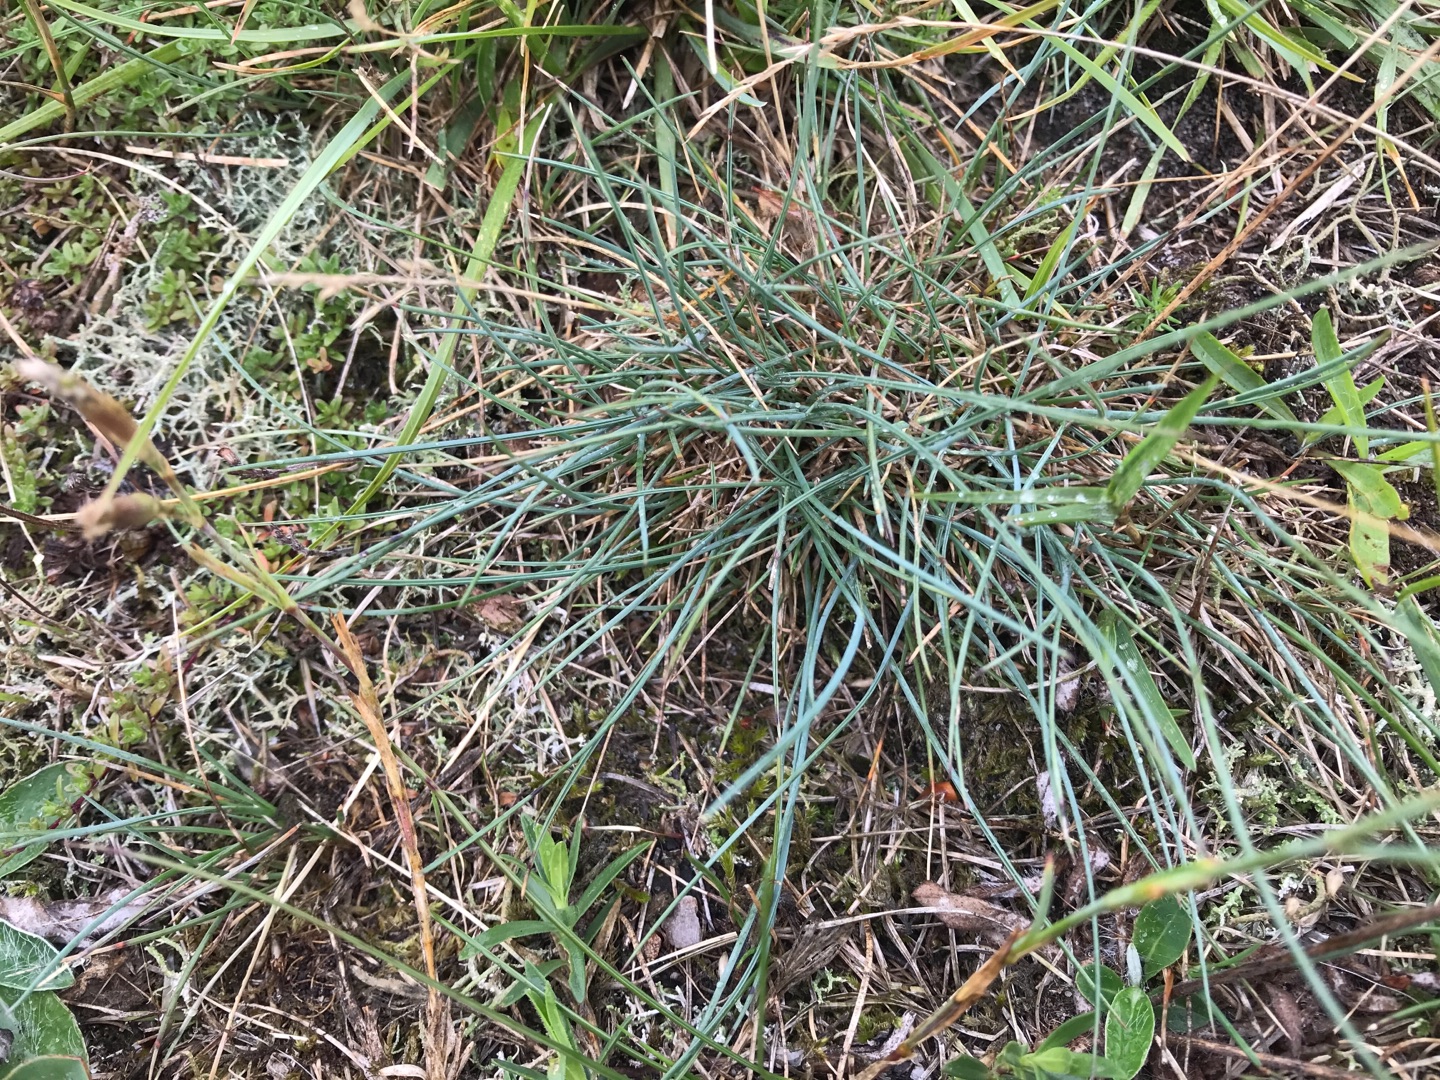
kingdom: Plantae
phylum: Tracheophyta
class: Liliopsida
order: Poales
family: Poaceae
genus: Festuca
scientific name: Festuca trachyphylla
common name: Bakke-svingel
